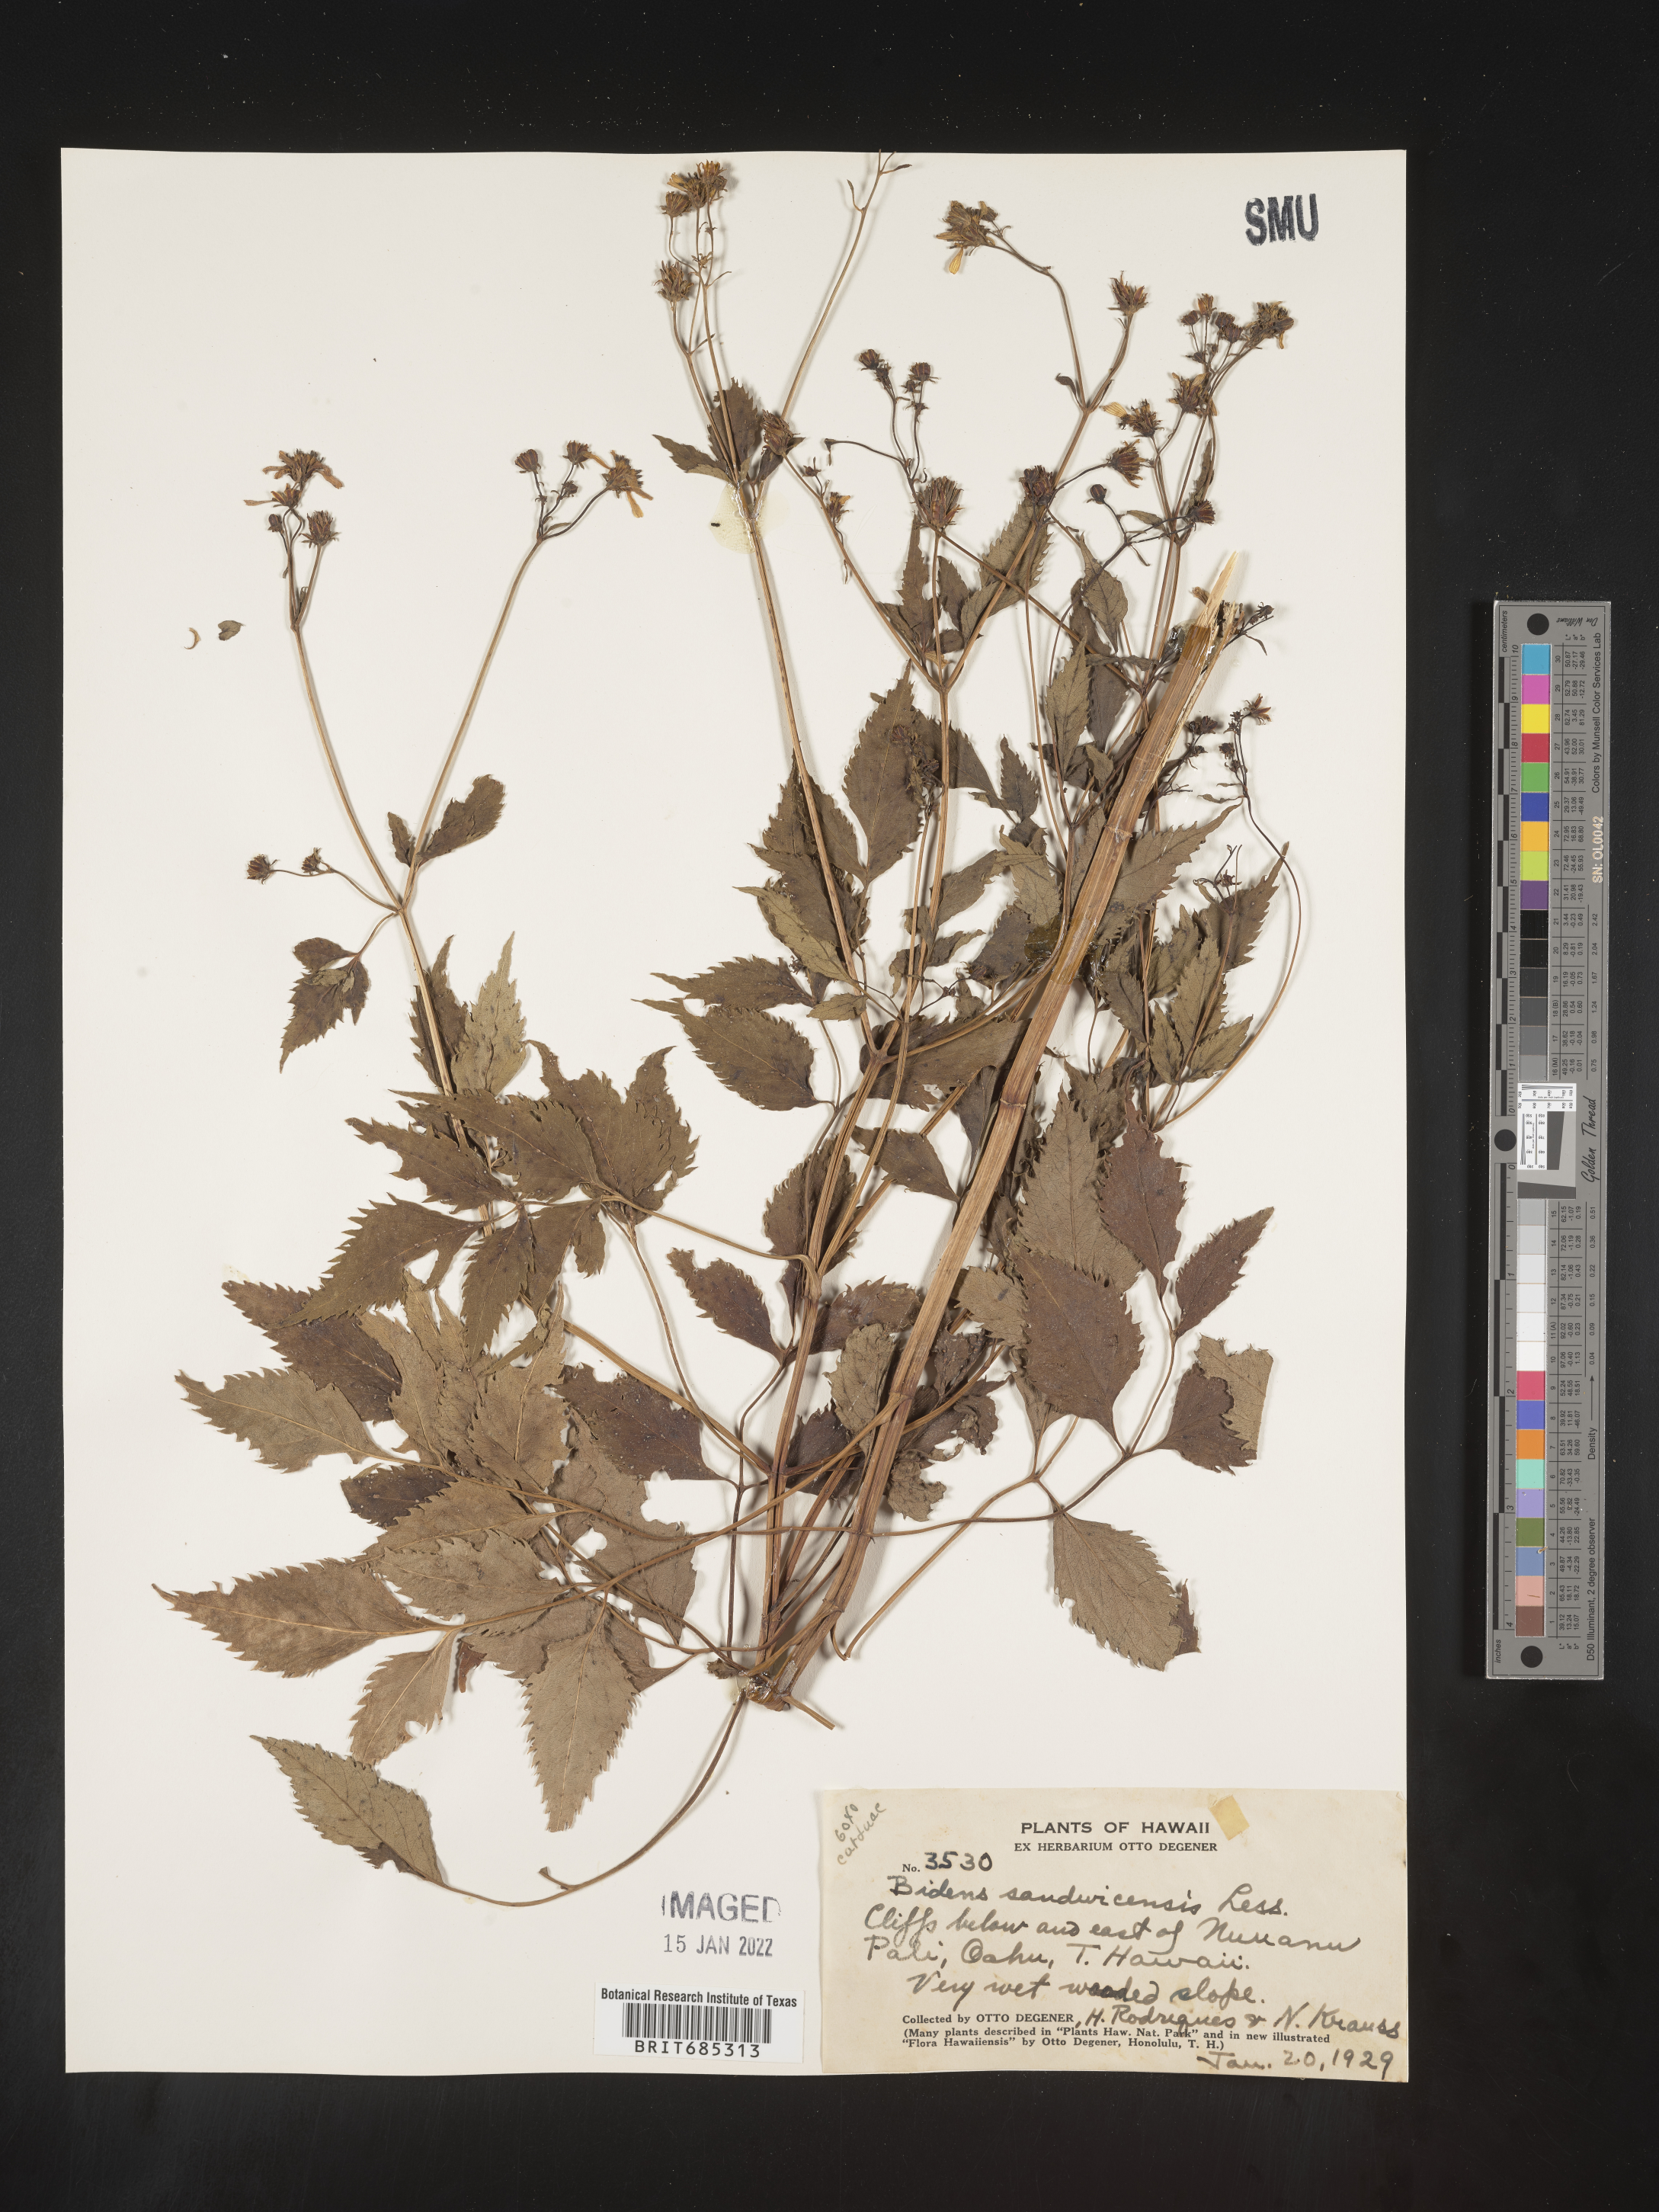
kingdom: Plantae
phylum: Tracheophyta
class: Magnoliopsida
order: Asterales
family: Asteraceae
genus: Bidens
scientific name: Bidens
